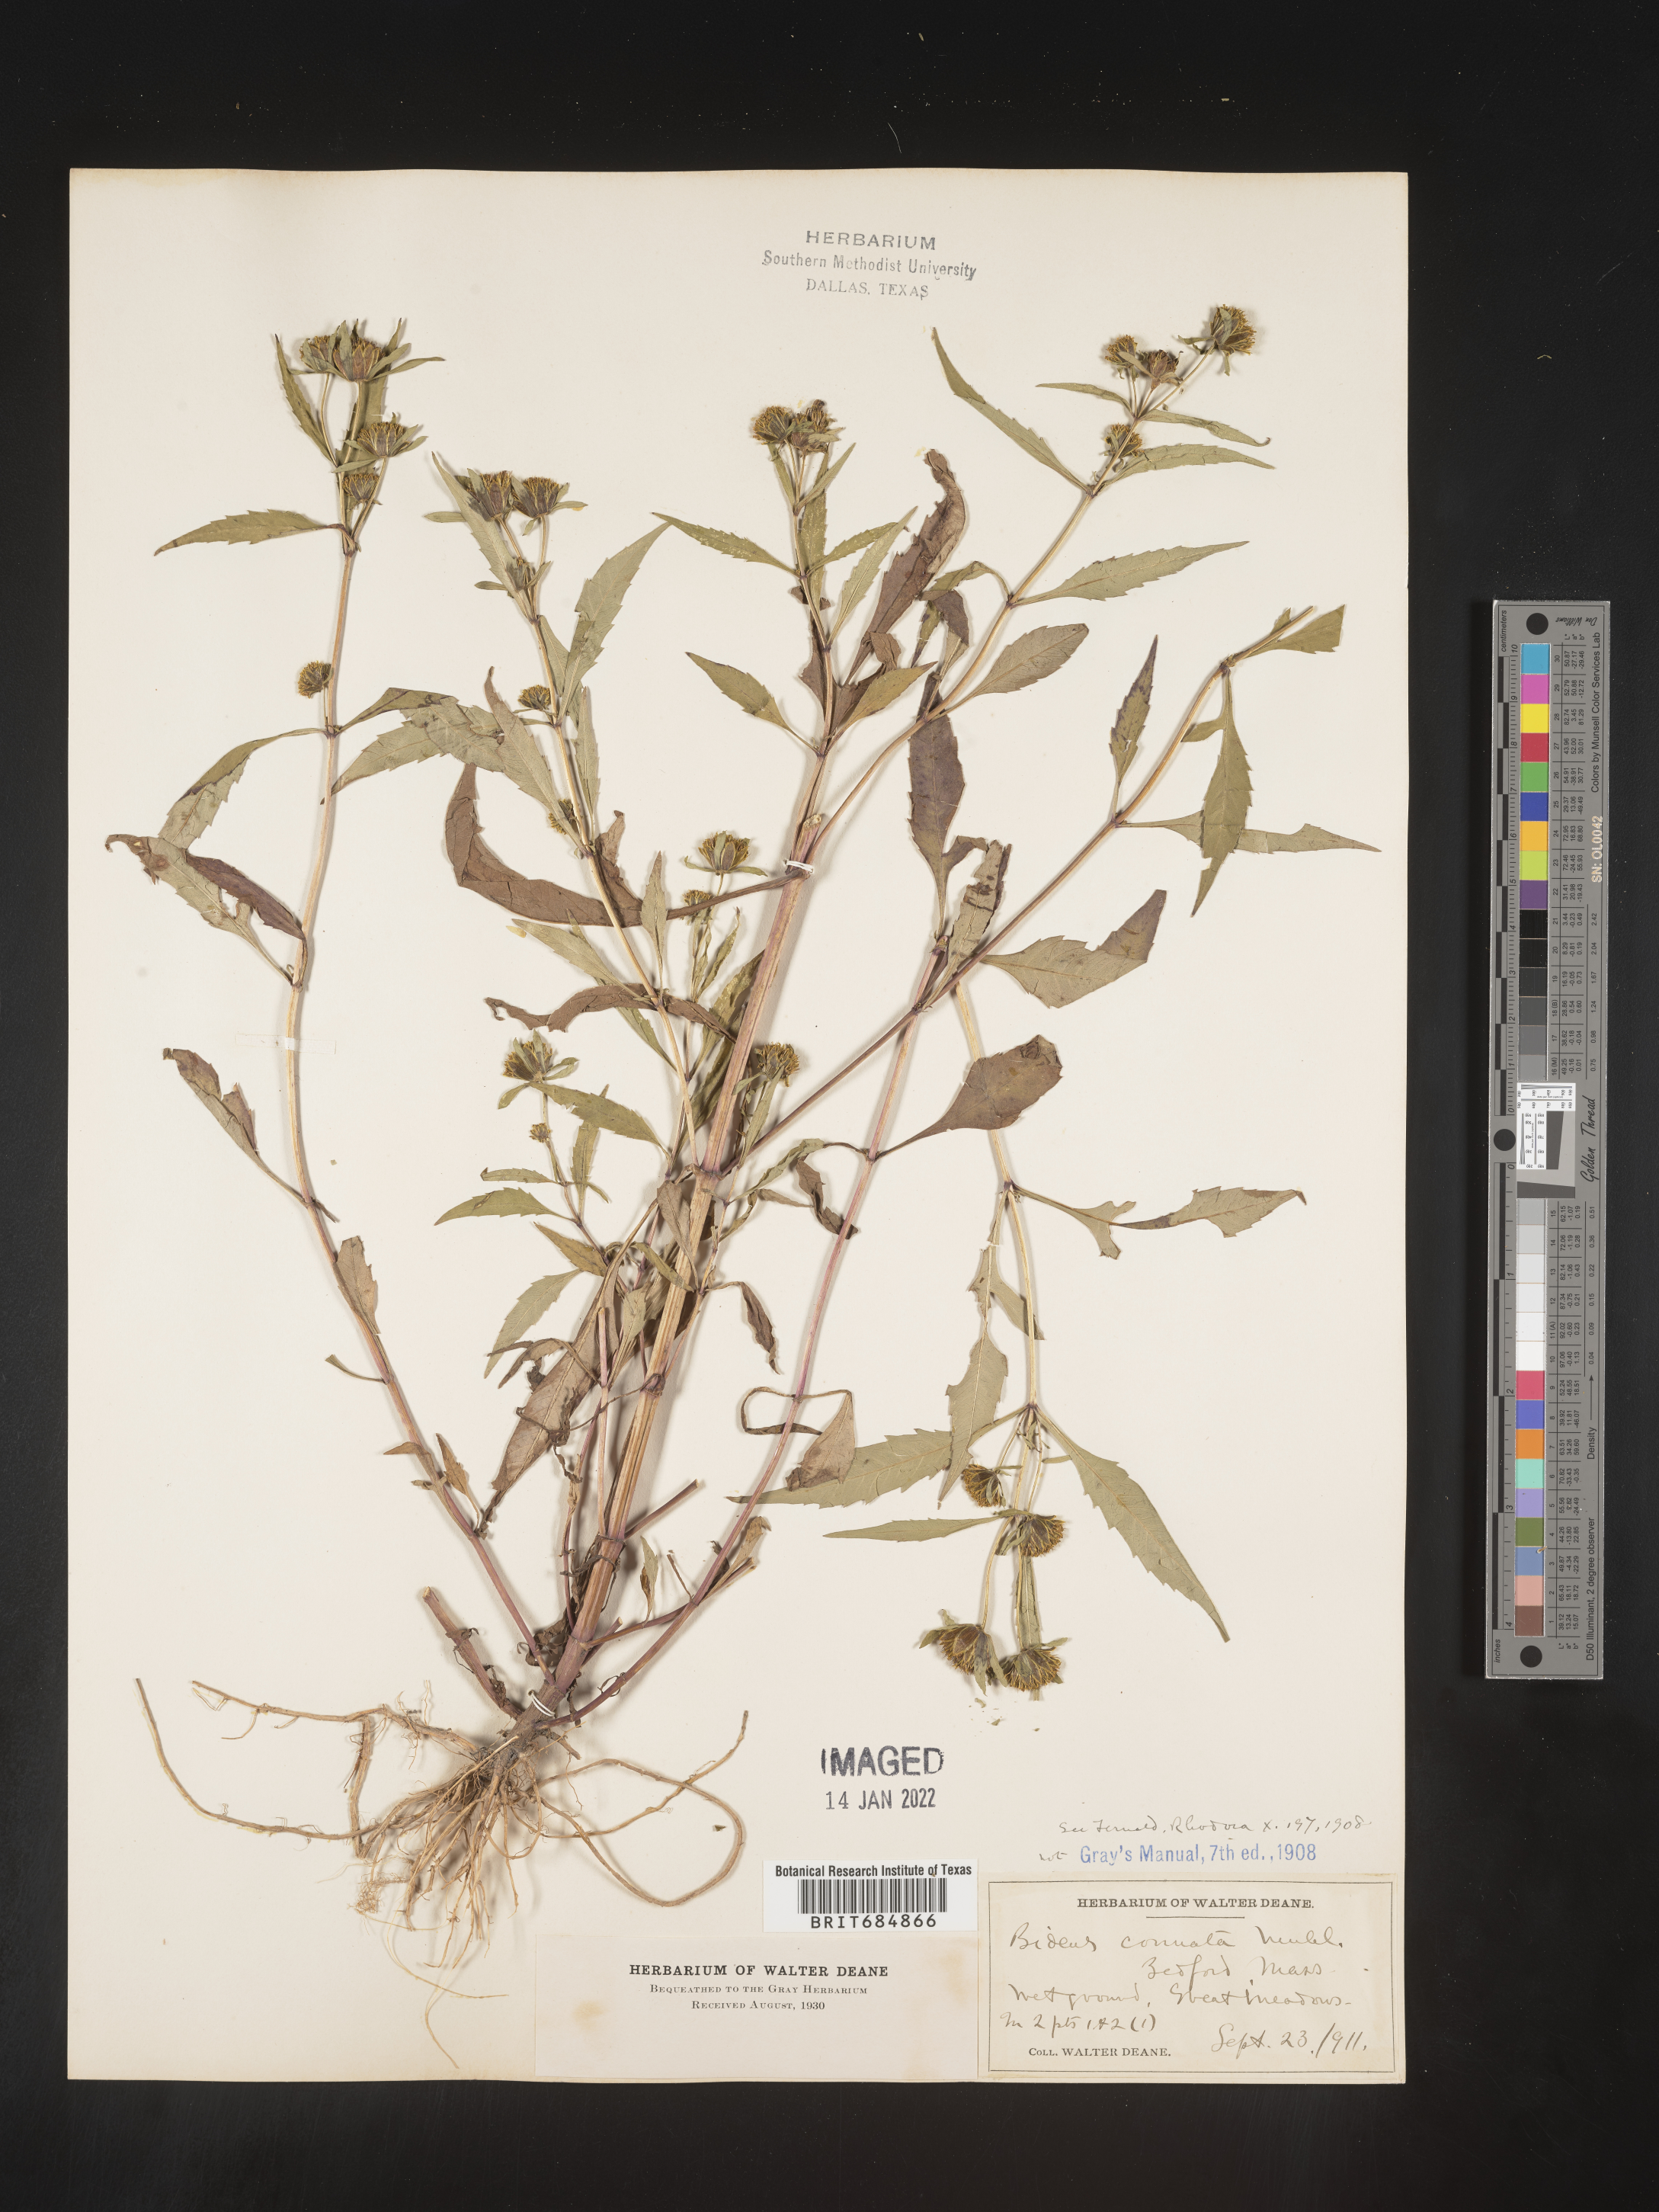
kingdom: Plantae
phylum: Tracheophyta
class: Magnoliopsida
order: Asterales
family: Asteraceae
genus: Bidens
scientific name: Bidens tripartita
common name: Trifid bur-marigold
